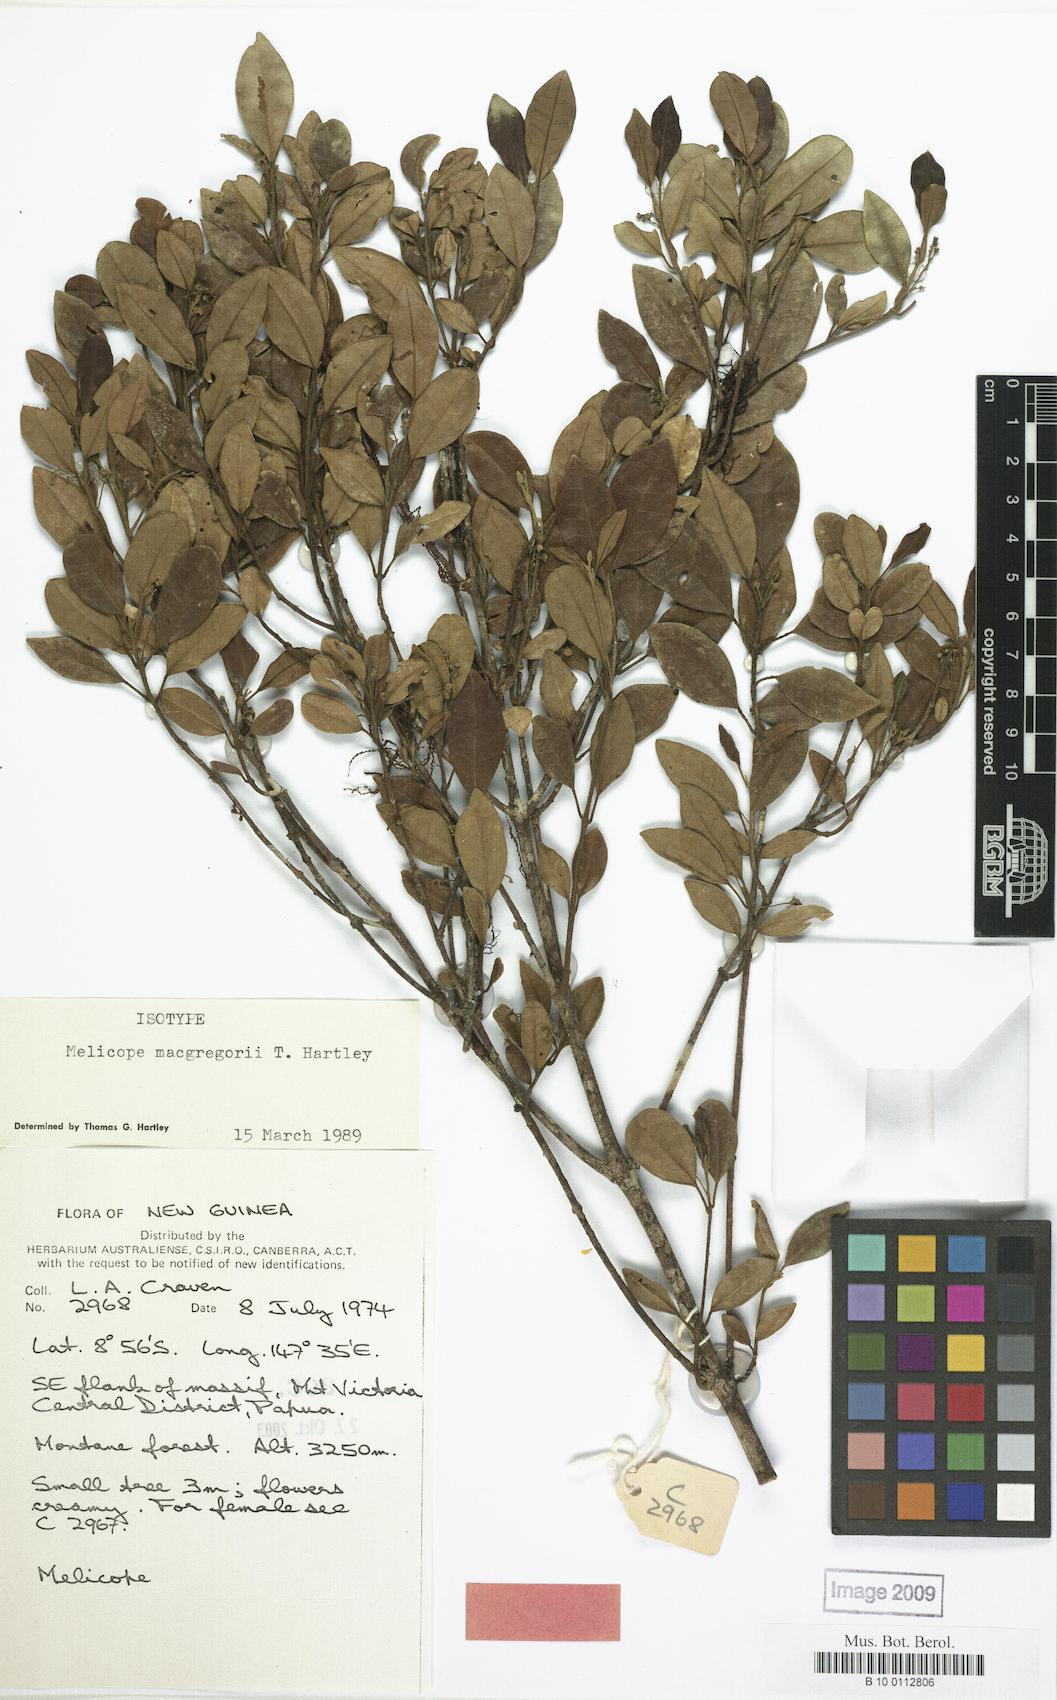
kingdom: Plantae
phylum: Tracheophyta
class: Magnoliopsida
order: Sapindales
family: Rutaceae
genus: Melicope
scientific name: Melicope macgregorii
